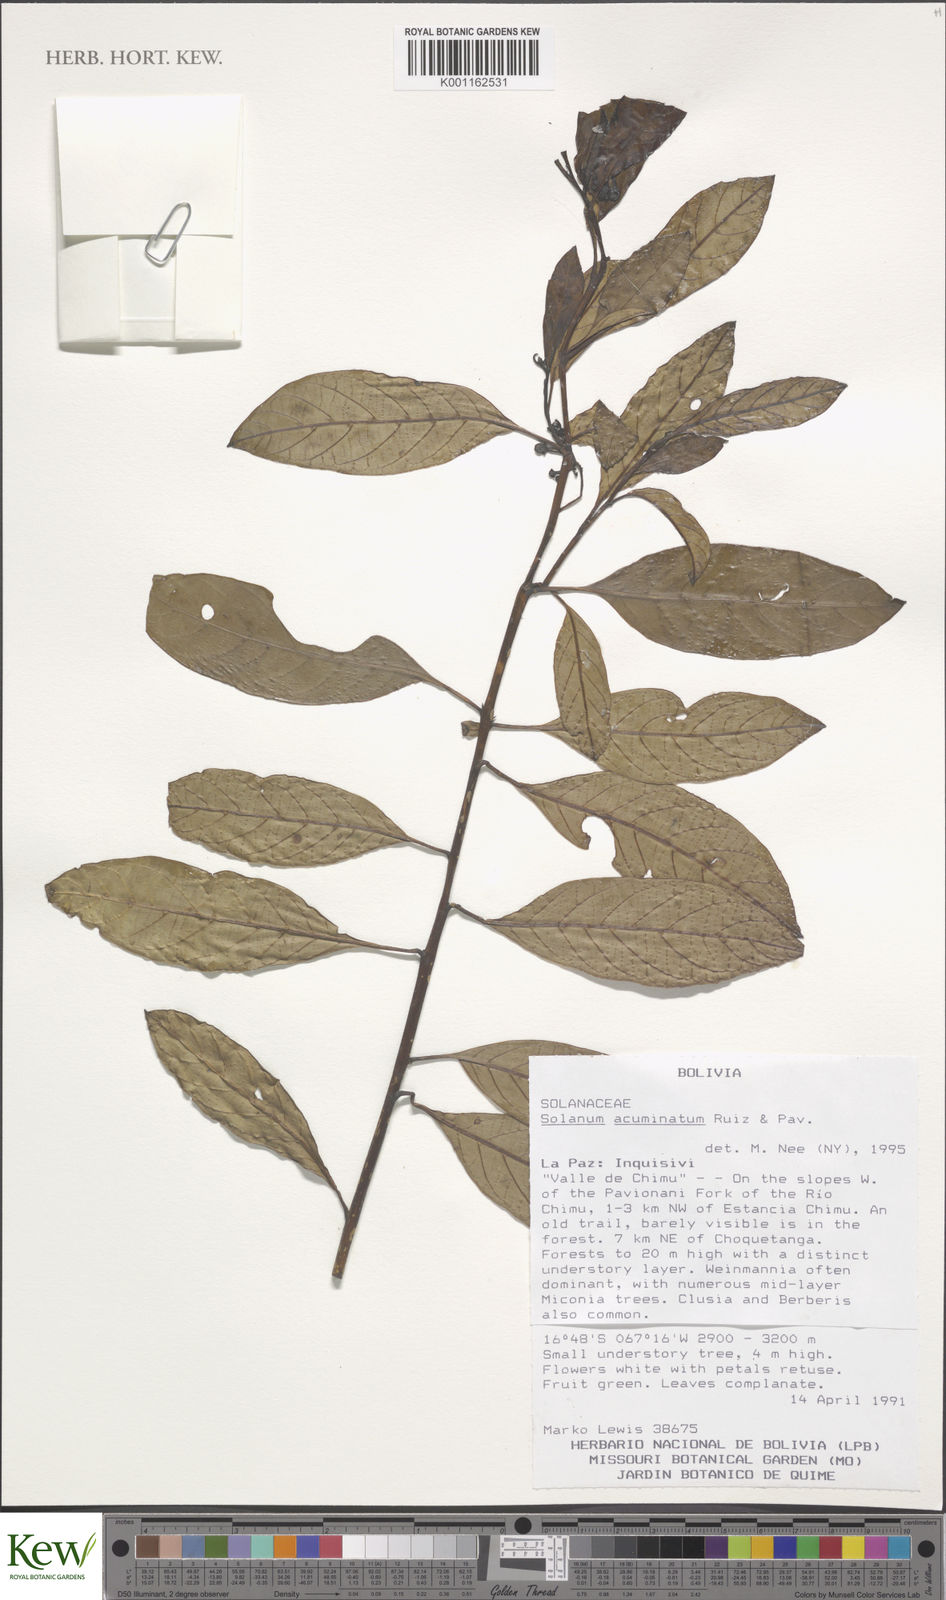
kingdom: Plantae
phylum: Tracheophyta
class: Magnoliopsida
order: Solanales
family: Solanaceae
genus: Solanum
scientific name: Solanum acuminatum
